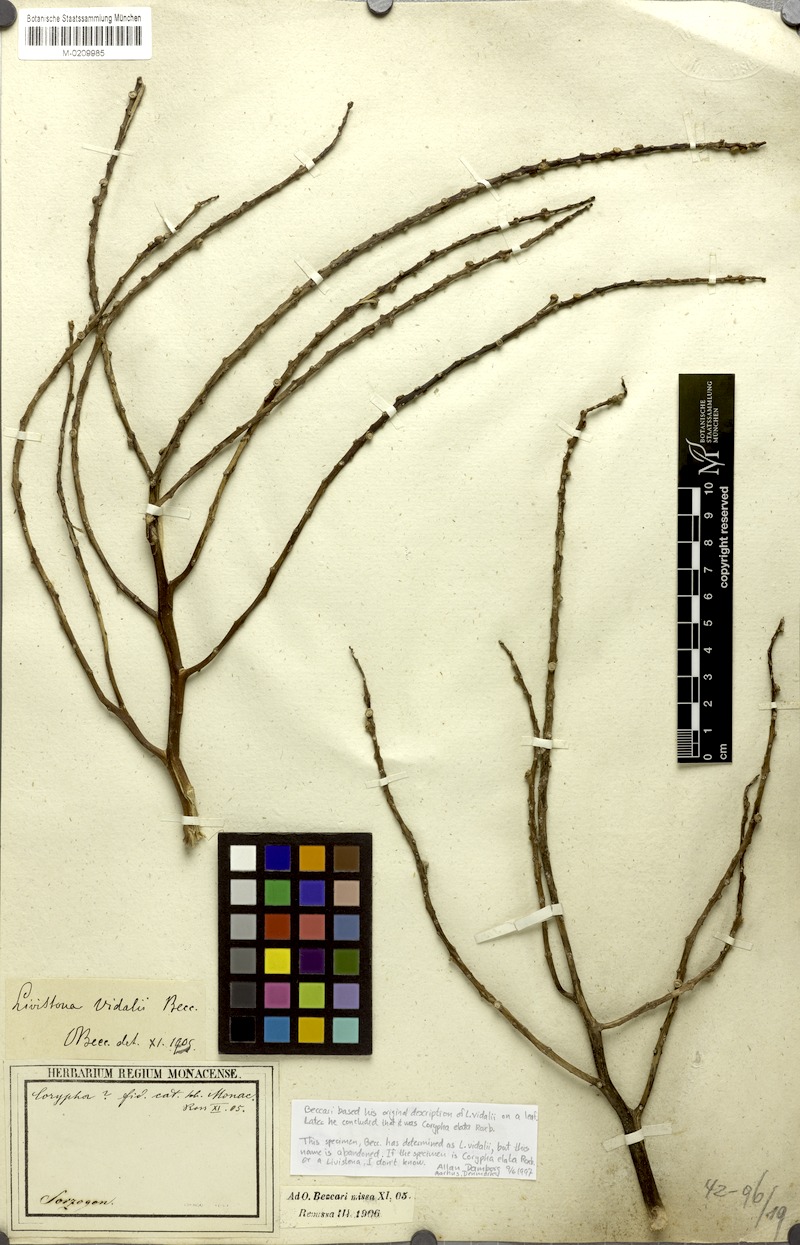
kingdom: Plantae
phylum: Tracheophyta
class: Liliopsida
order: Arecales
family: Arecaceae
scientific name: Arecaceae
